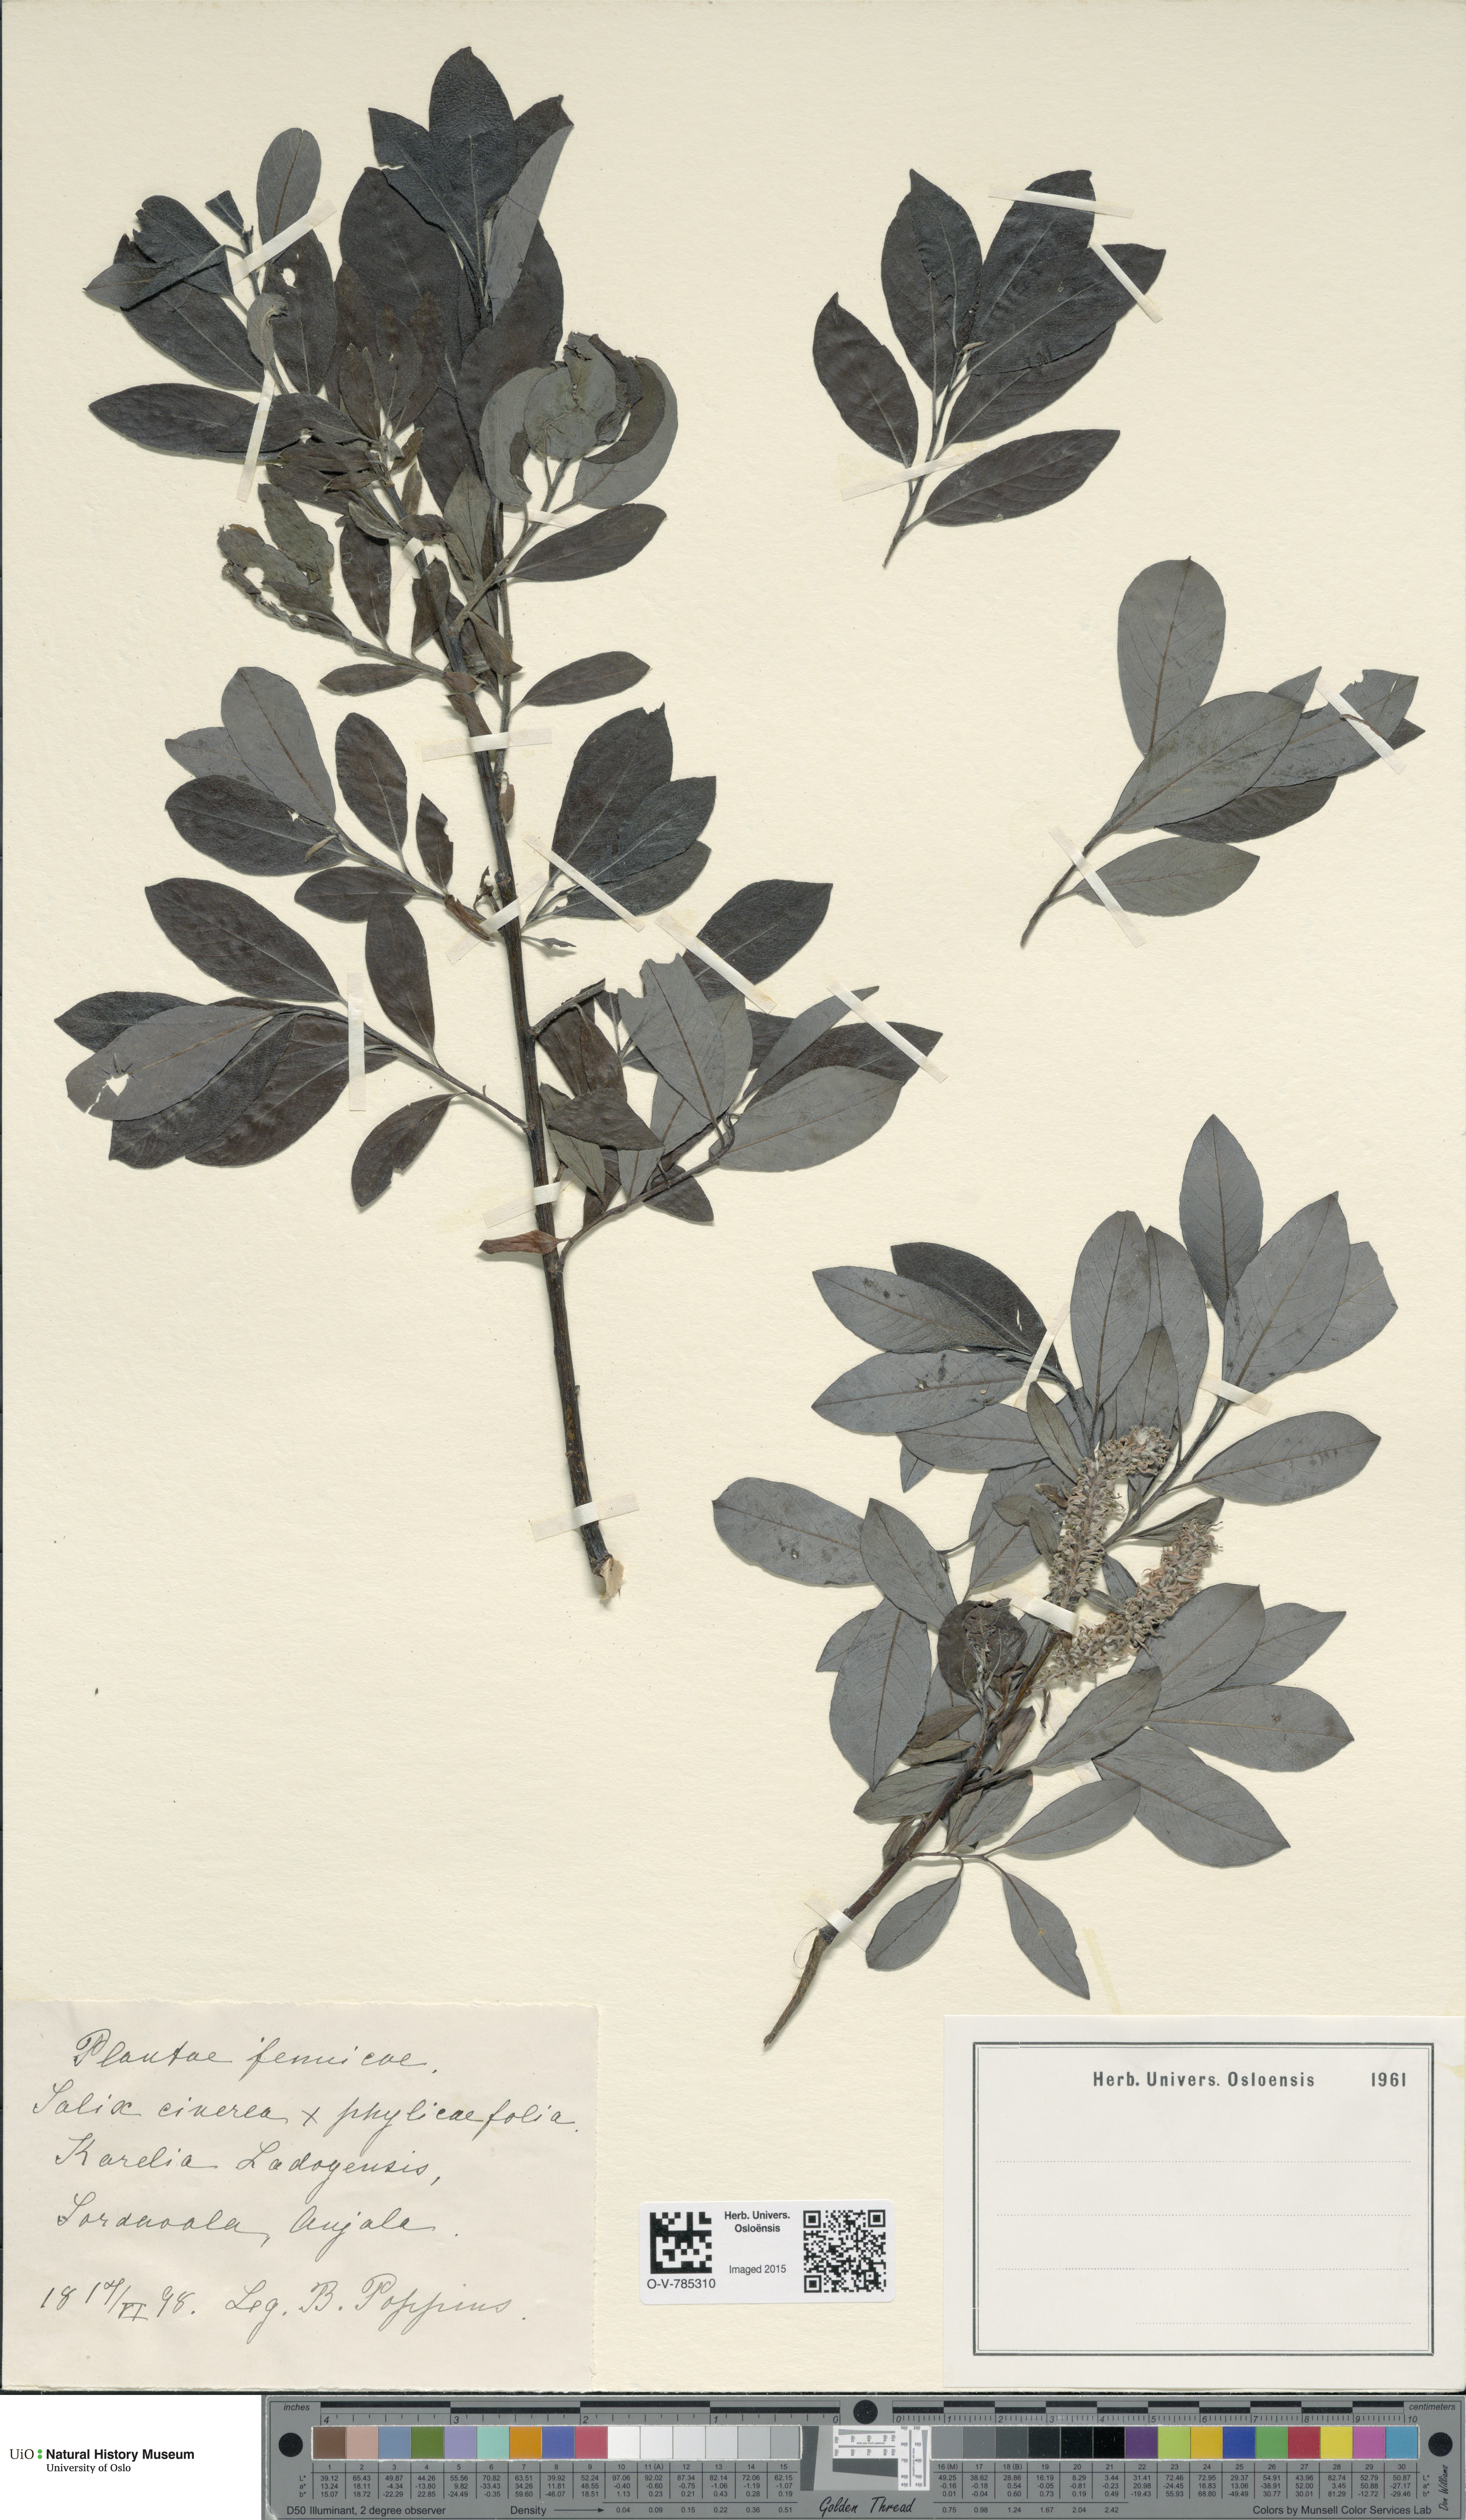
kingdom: Plantae
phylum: Tracheophyta
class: Magnoliopsida
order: Malpighiales
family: Salicaceae
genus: Salix
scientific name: Salix
